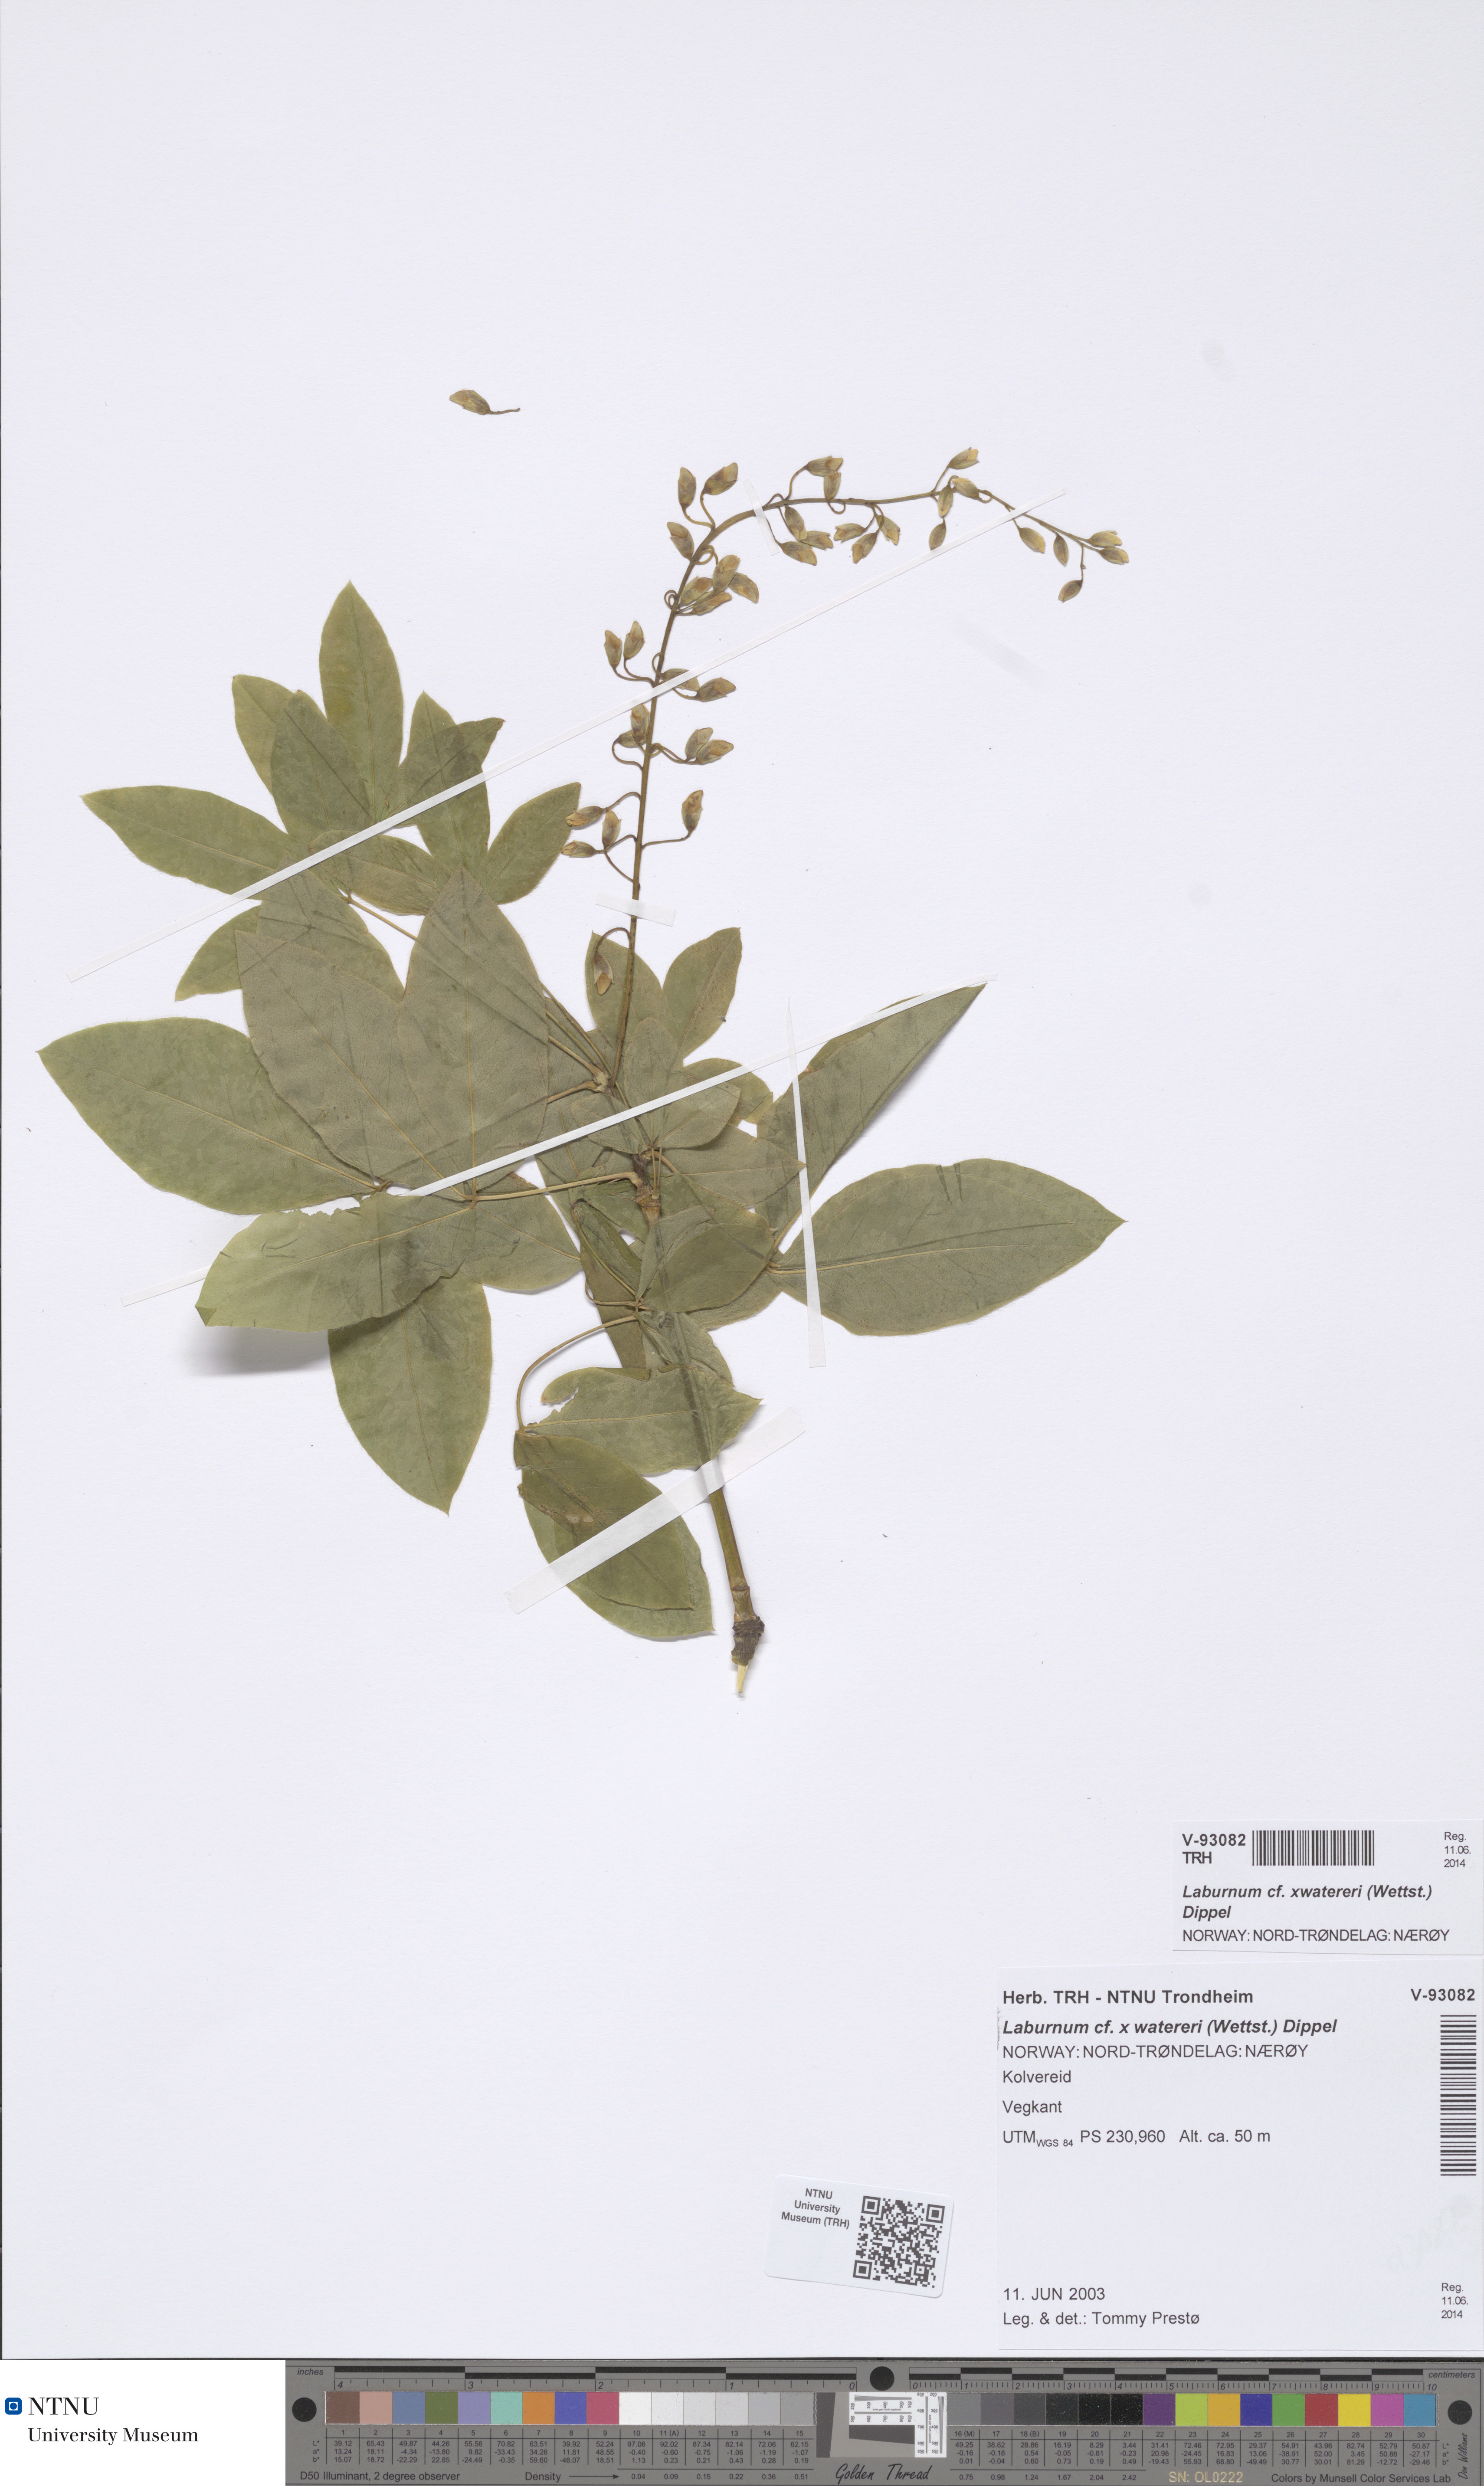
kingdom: Plantae
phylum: Tracheophyta
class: Magnoliopsida
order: Fabales
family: Fabaceae
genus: Laburnum
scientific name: Laburnum watereri
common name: Golden chain tree
